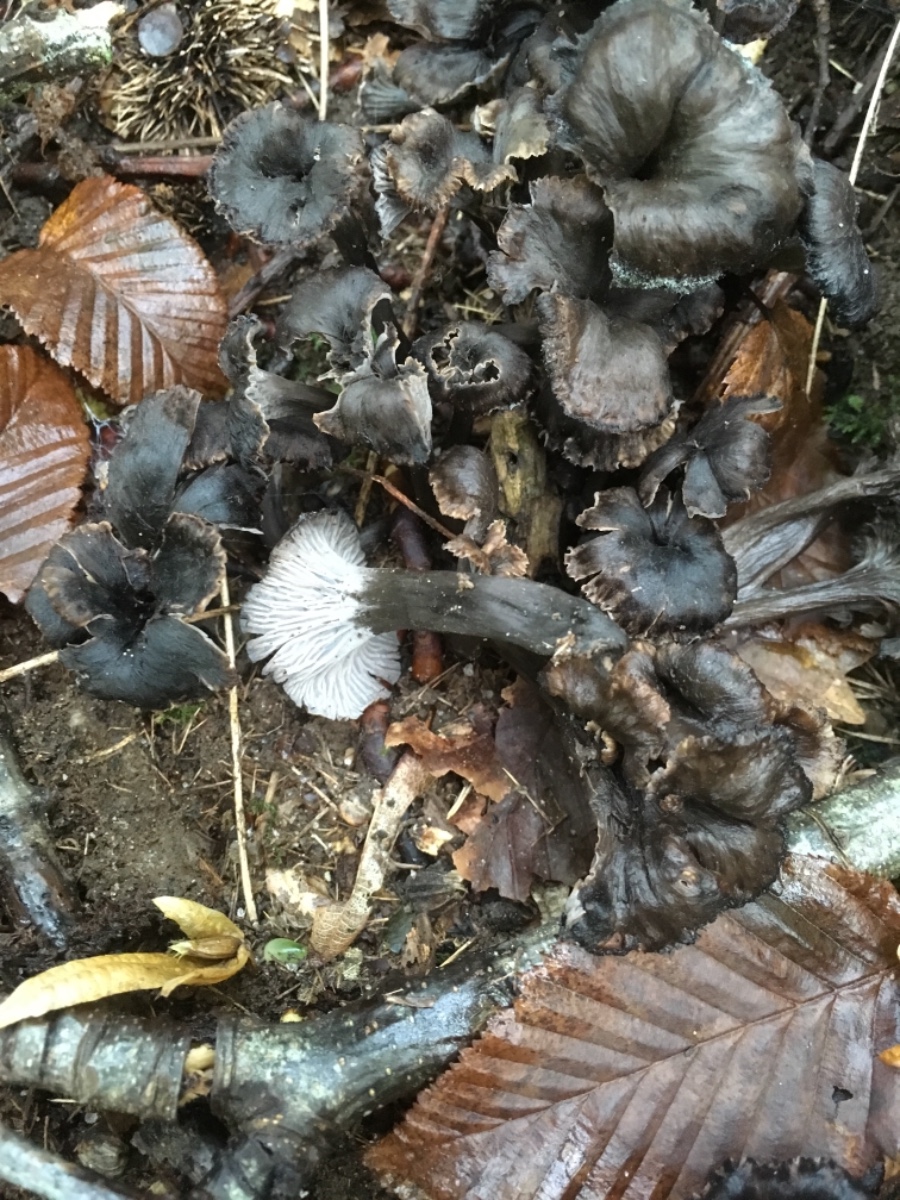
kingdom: Fungi
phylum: Basidiomycota
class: Agaricomycetes
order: Cantharellales
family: Hydnaceae
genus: Cantharellus
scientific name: Cantharellus cinereus
